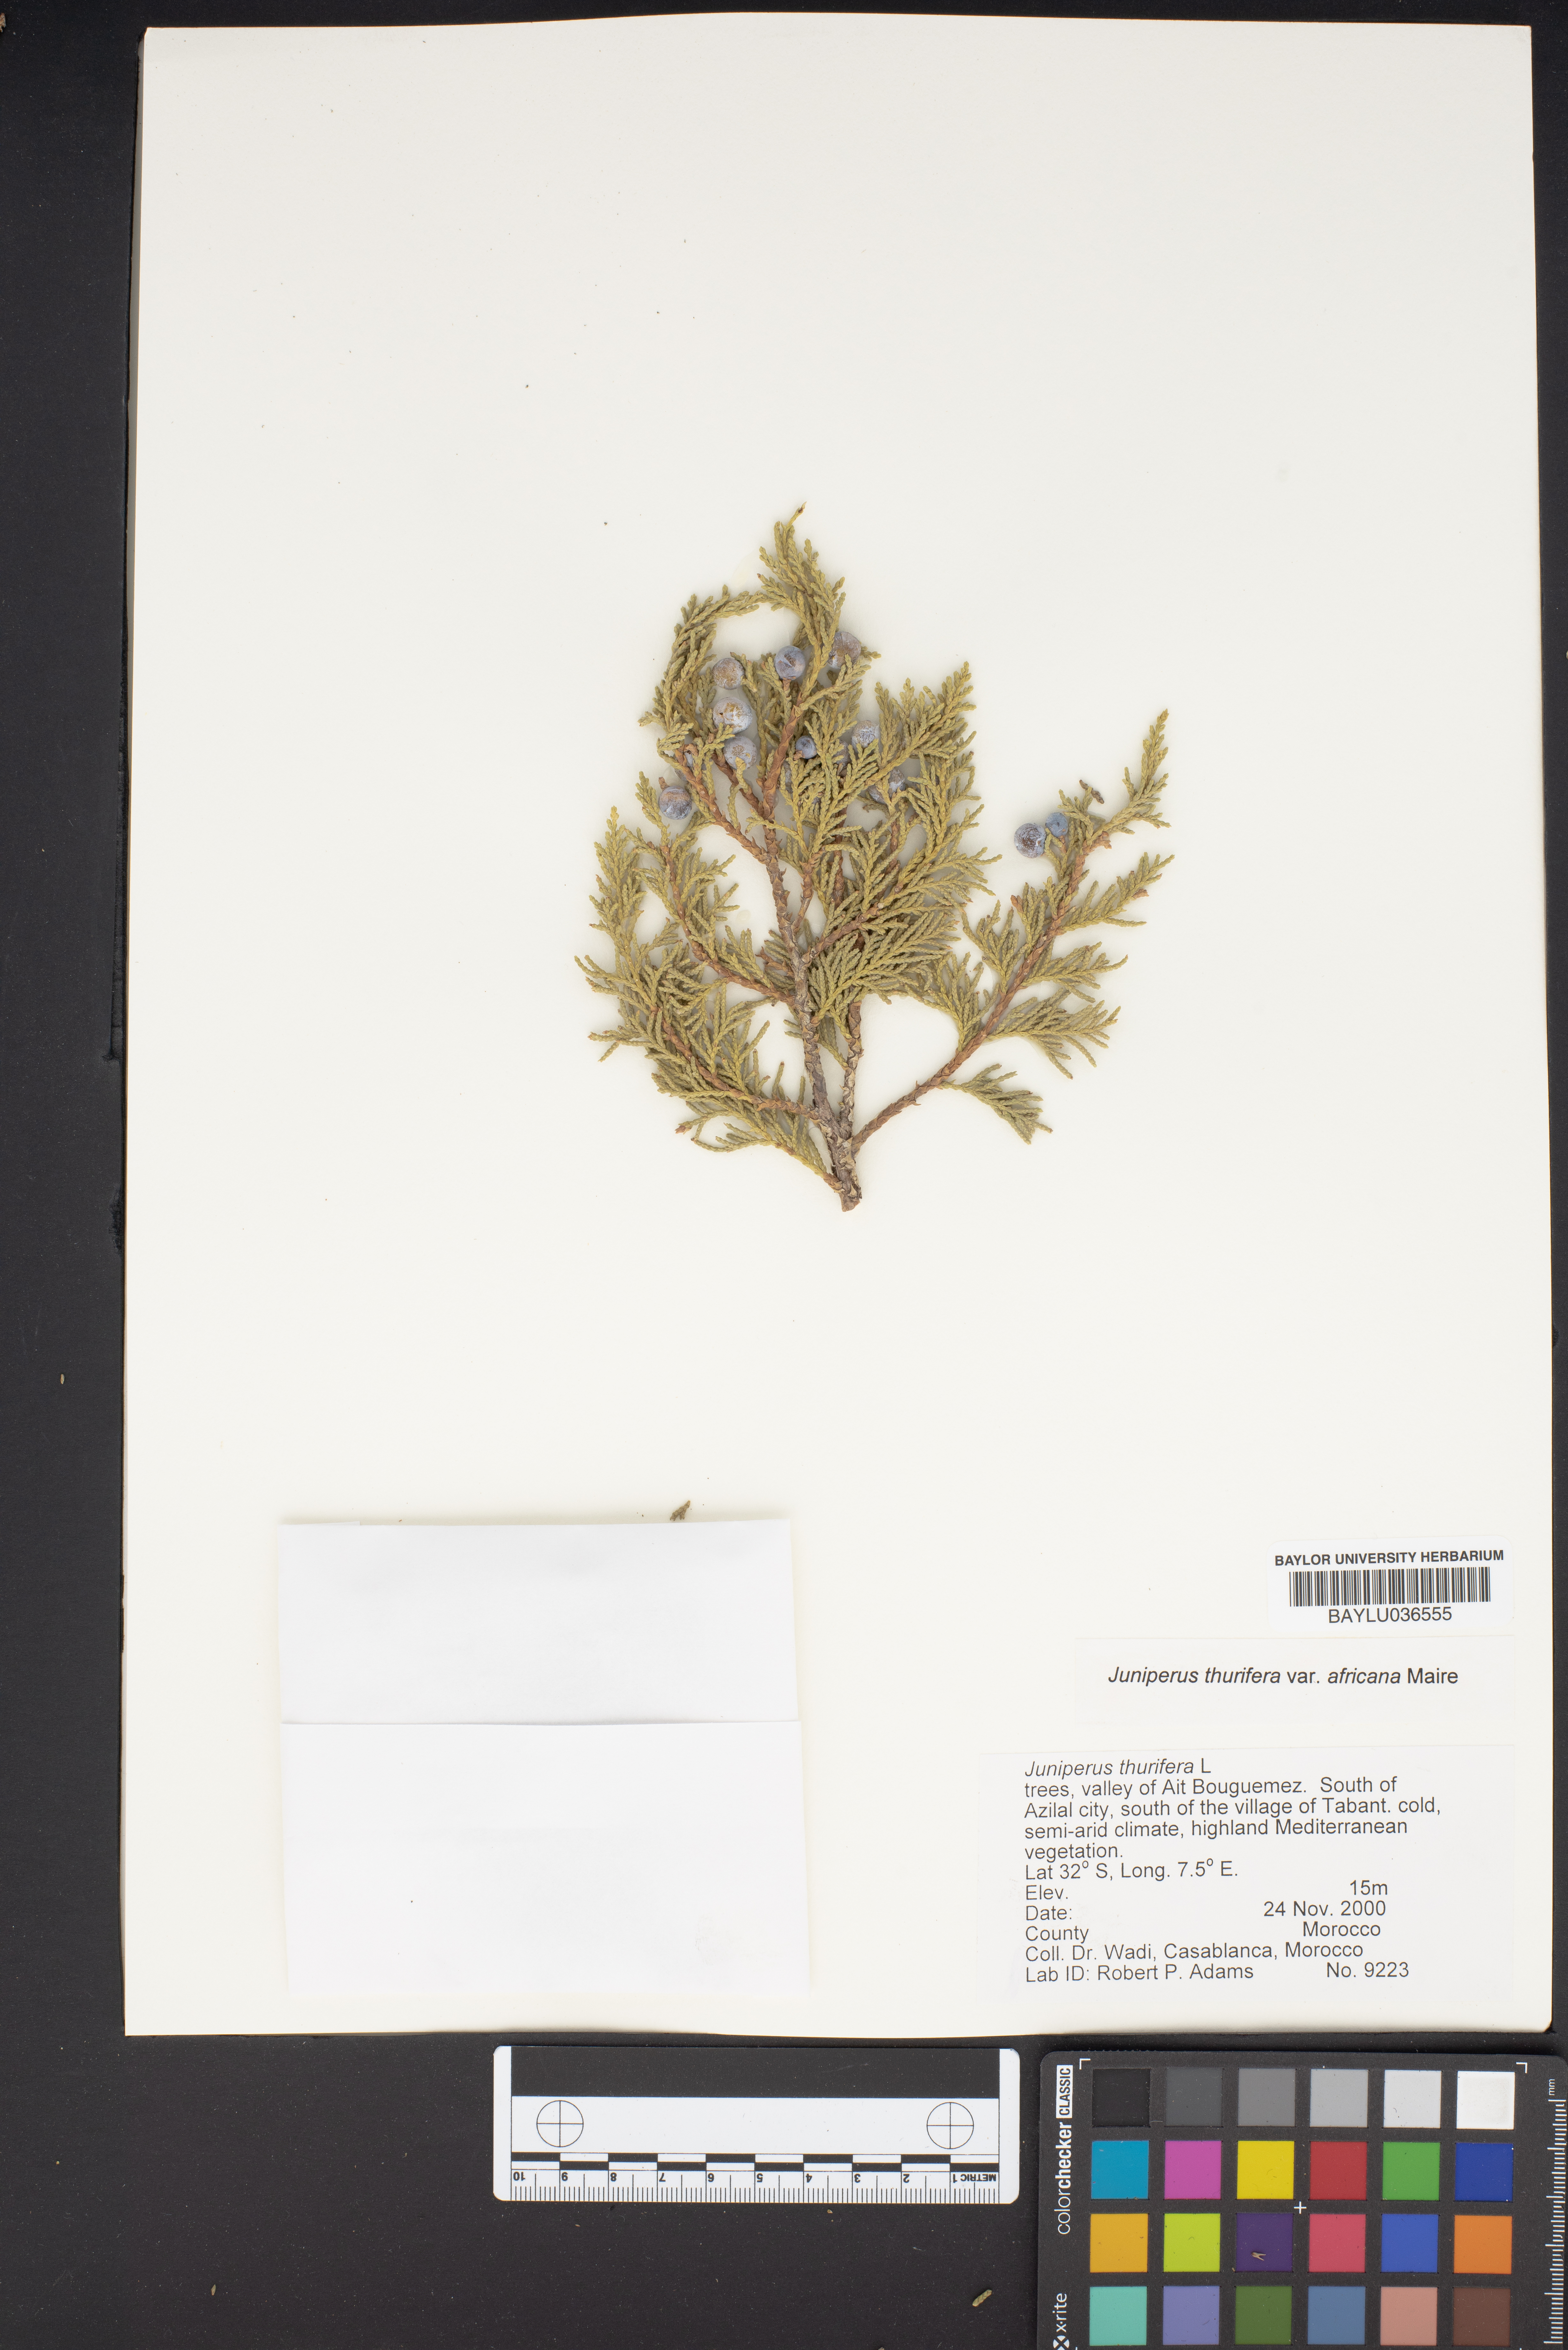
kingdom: Plantae
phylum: Tracheophyta
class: Pinopsida
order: Pinales
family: Cupressaceae
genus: Juniperus
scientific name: Juniperus thurifera
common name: Incense juniper
